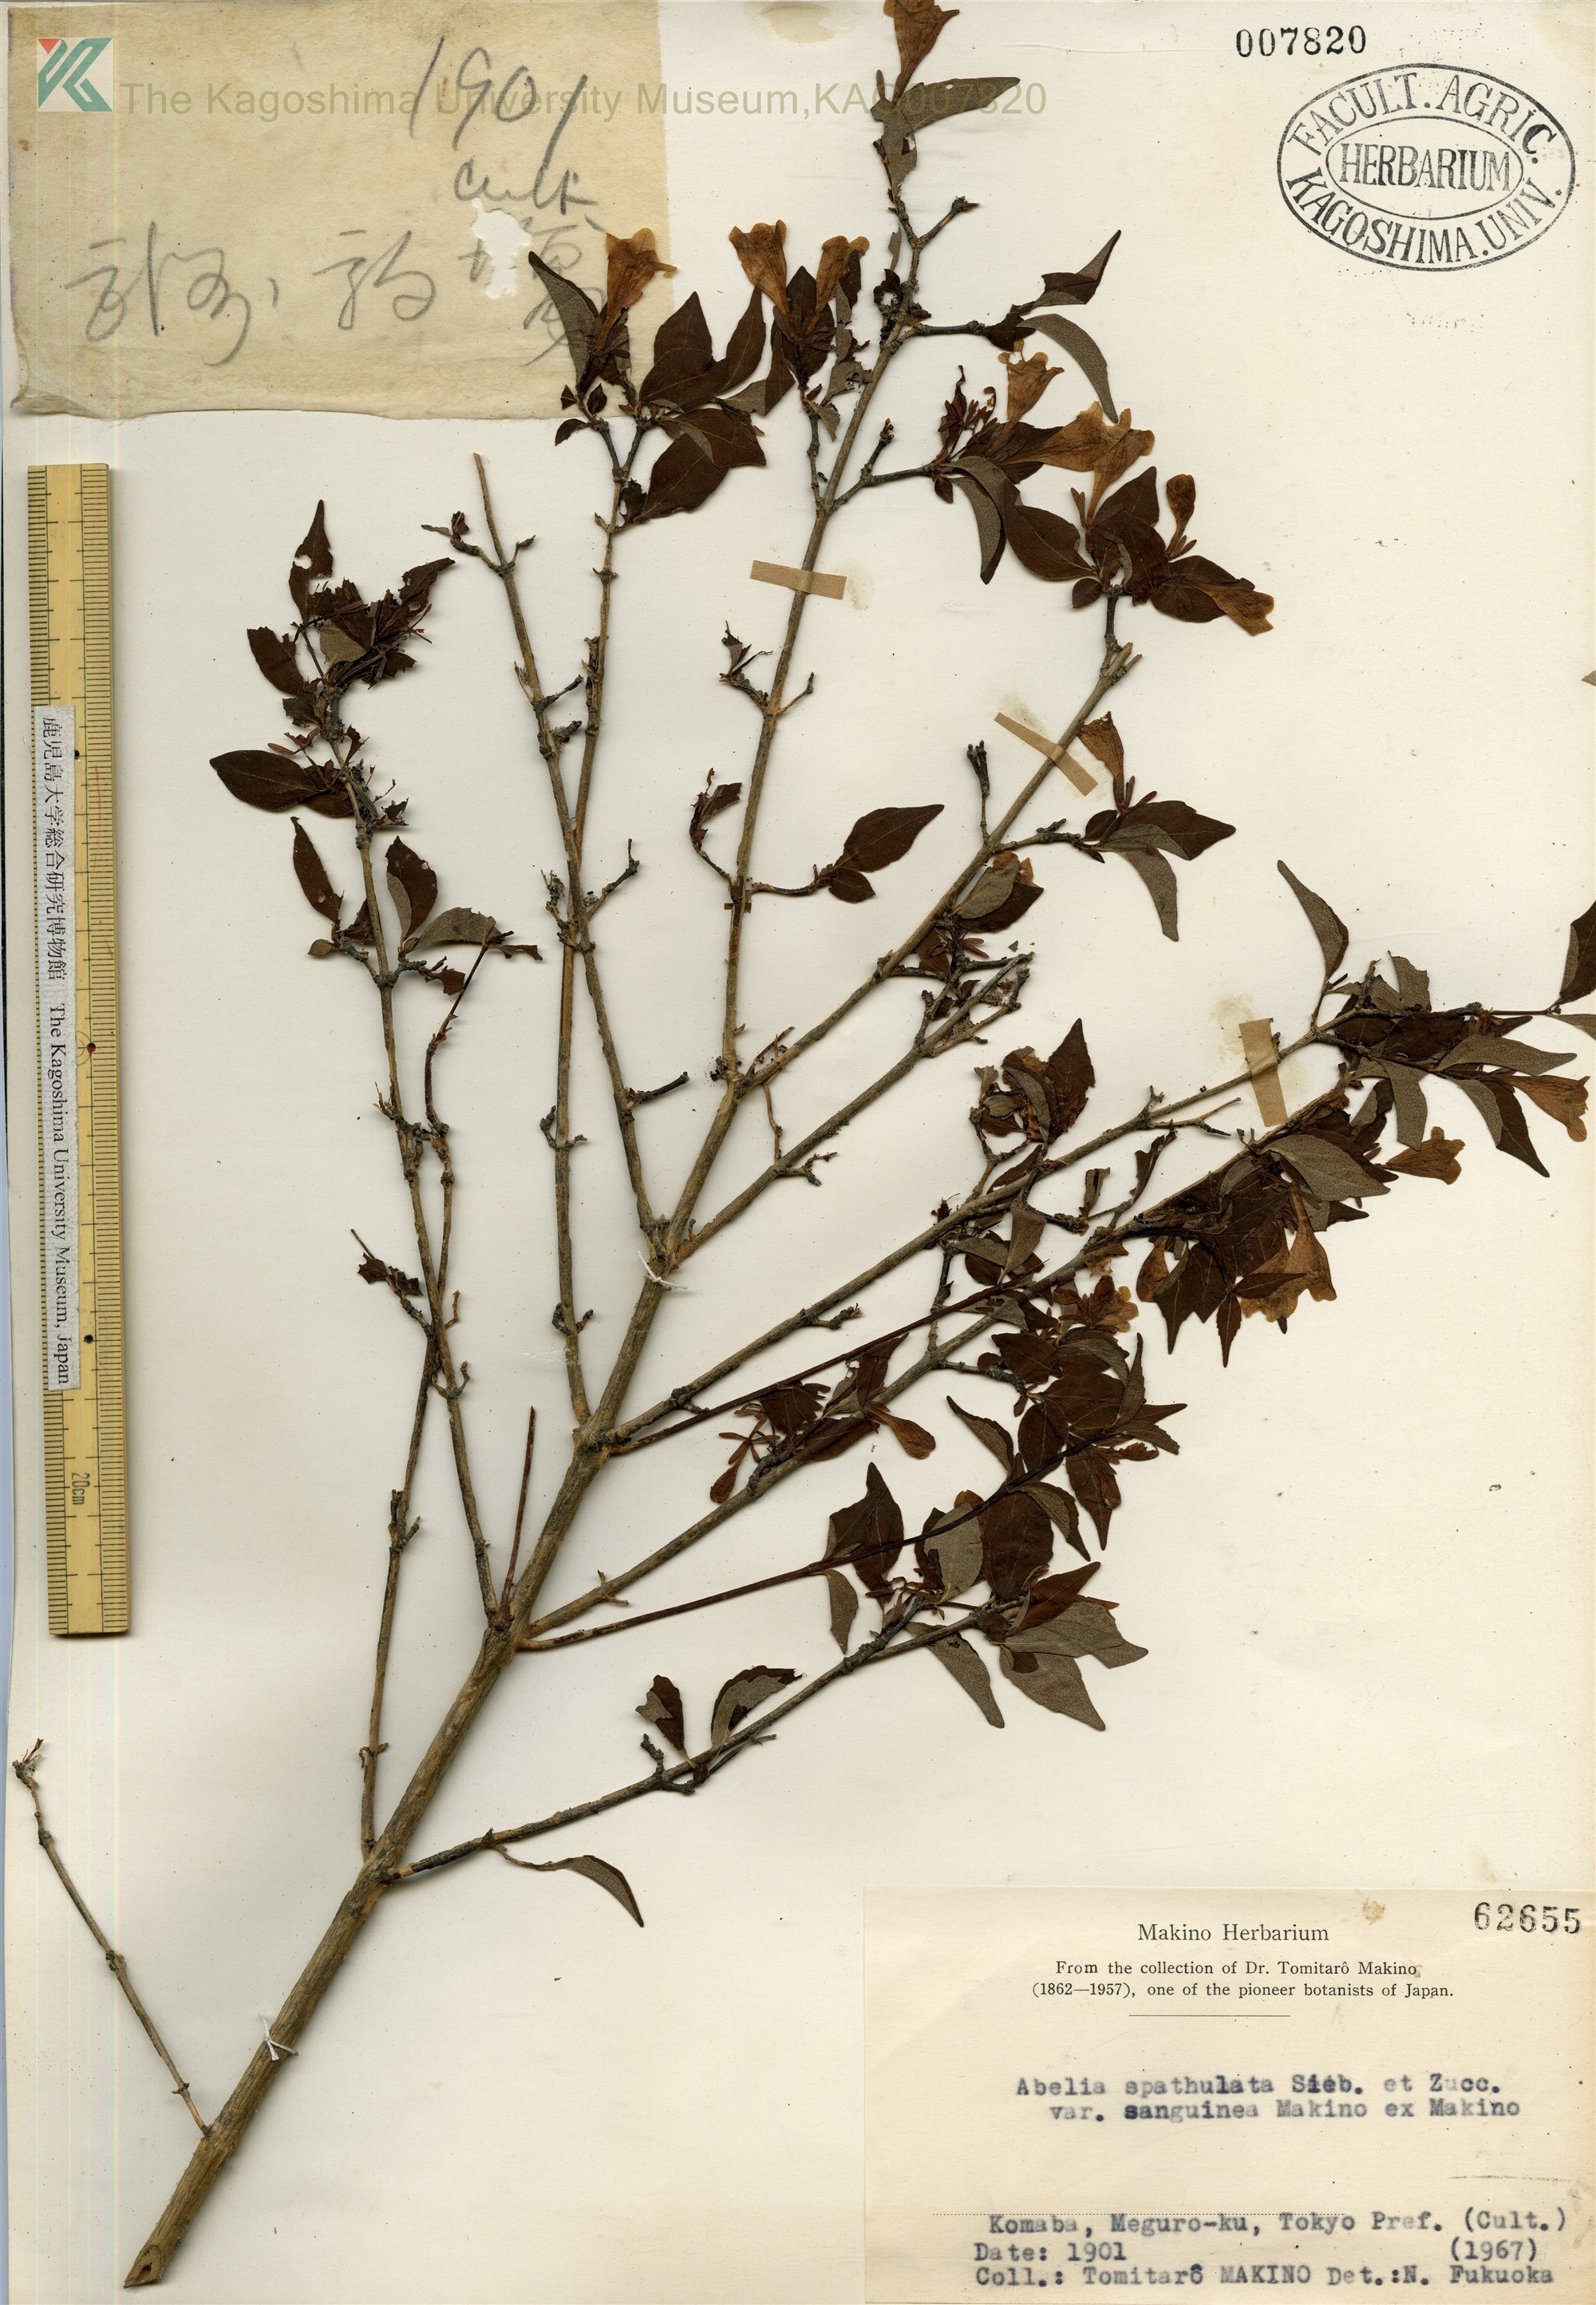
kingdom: Plantae
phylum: Tracheophyta
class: Magnoliopsida
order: Dipsacales
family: Caprifoliaceae
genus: Diabelia
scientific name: Diabelia sanguinea
